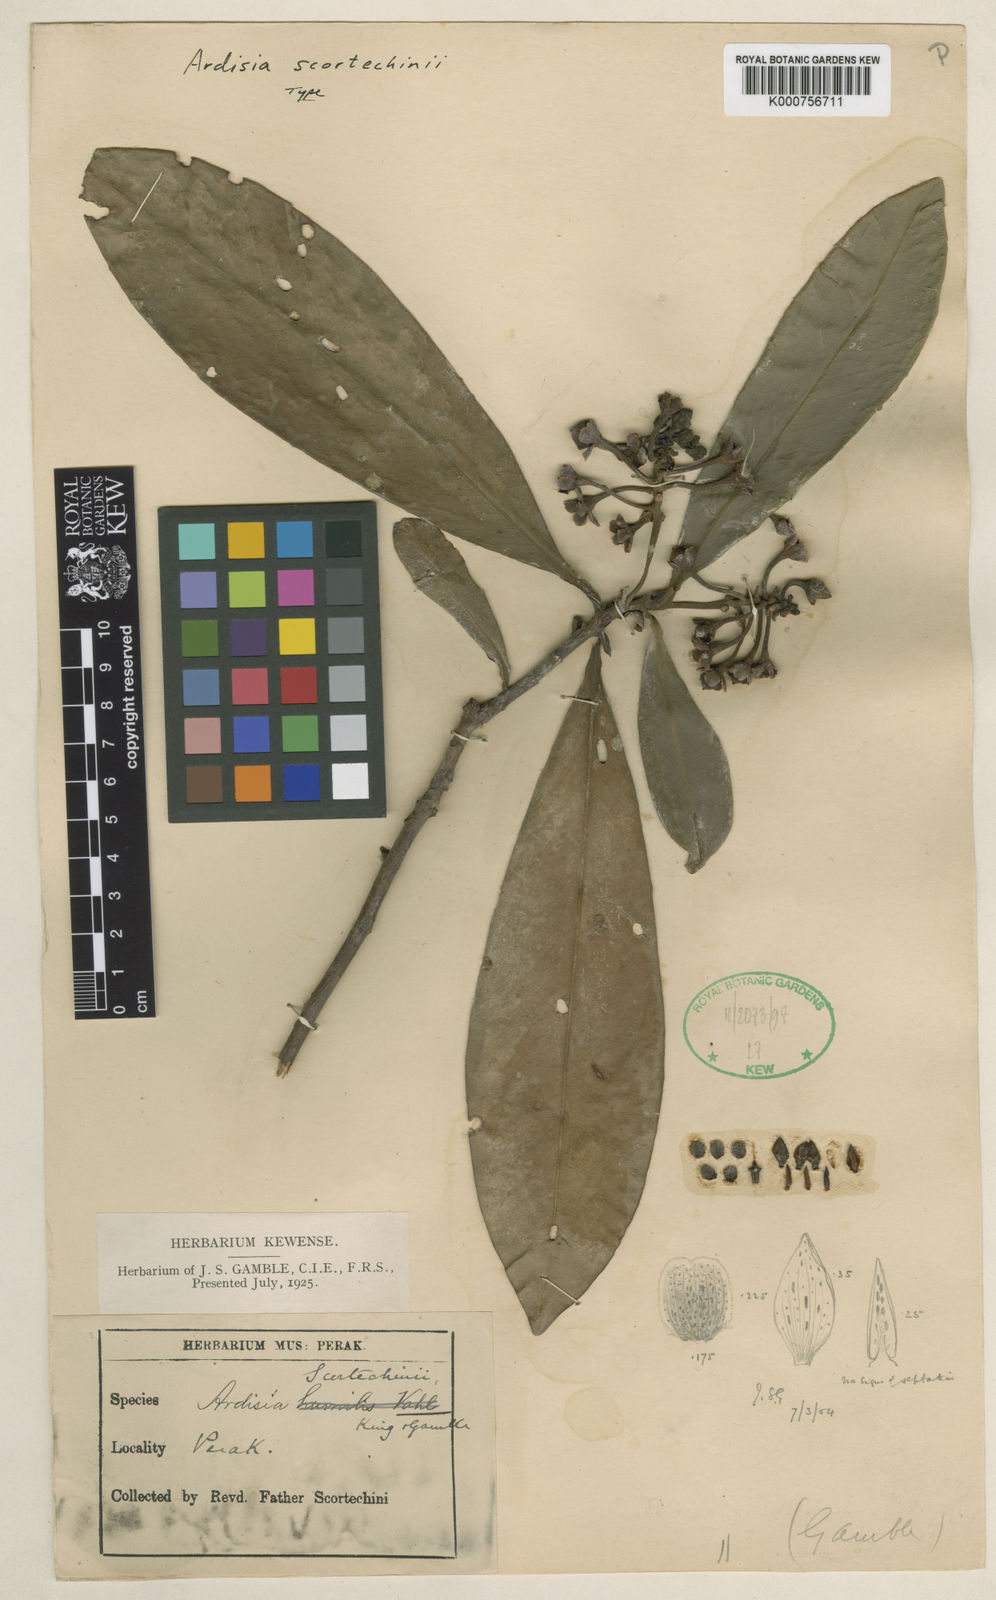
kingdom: Plantae
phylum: Tracheophyta
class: Magnoliopsida
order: Ericales
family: Primulaceae
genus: Ardisia
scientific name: Ardisia scortechinii
